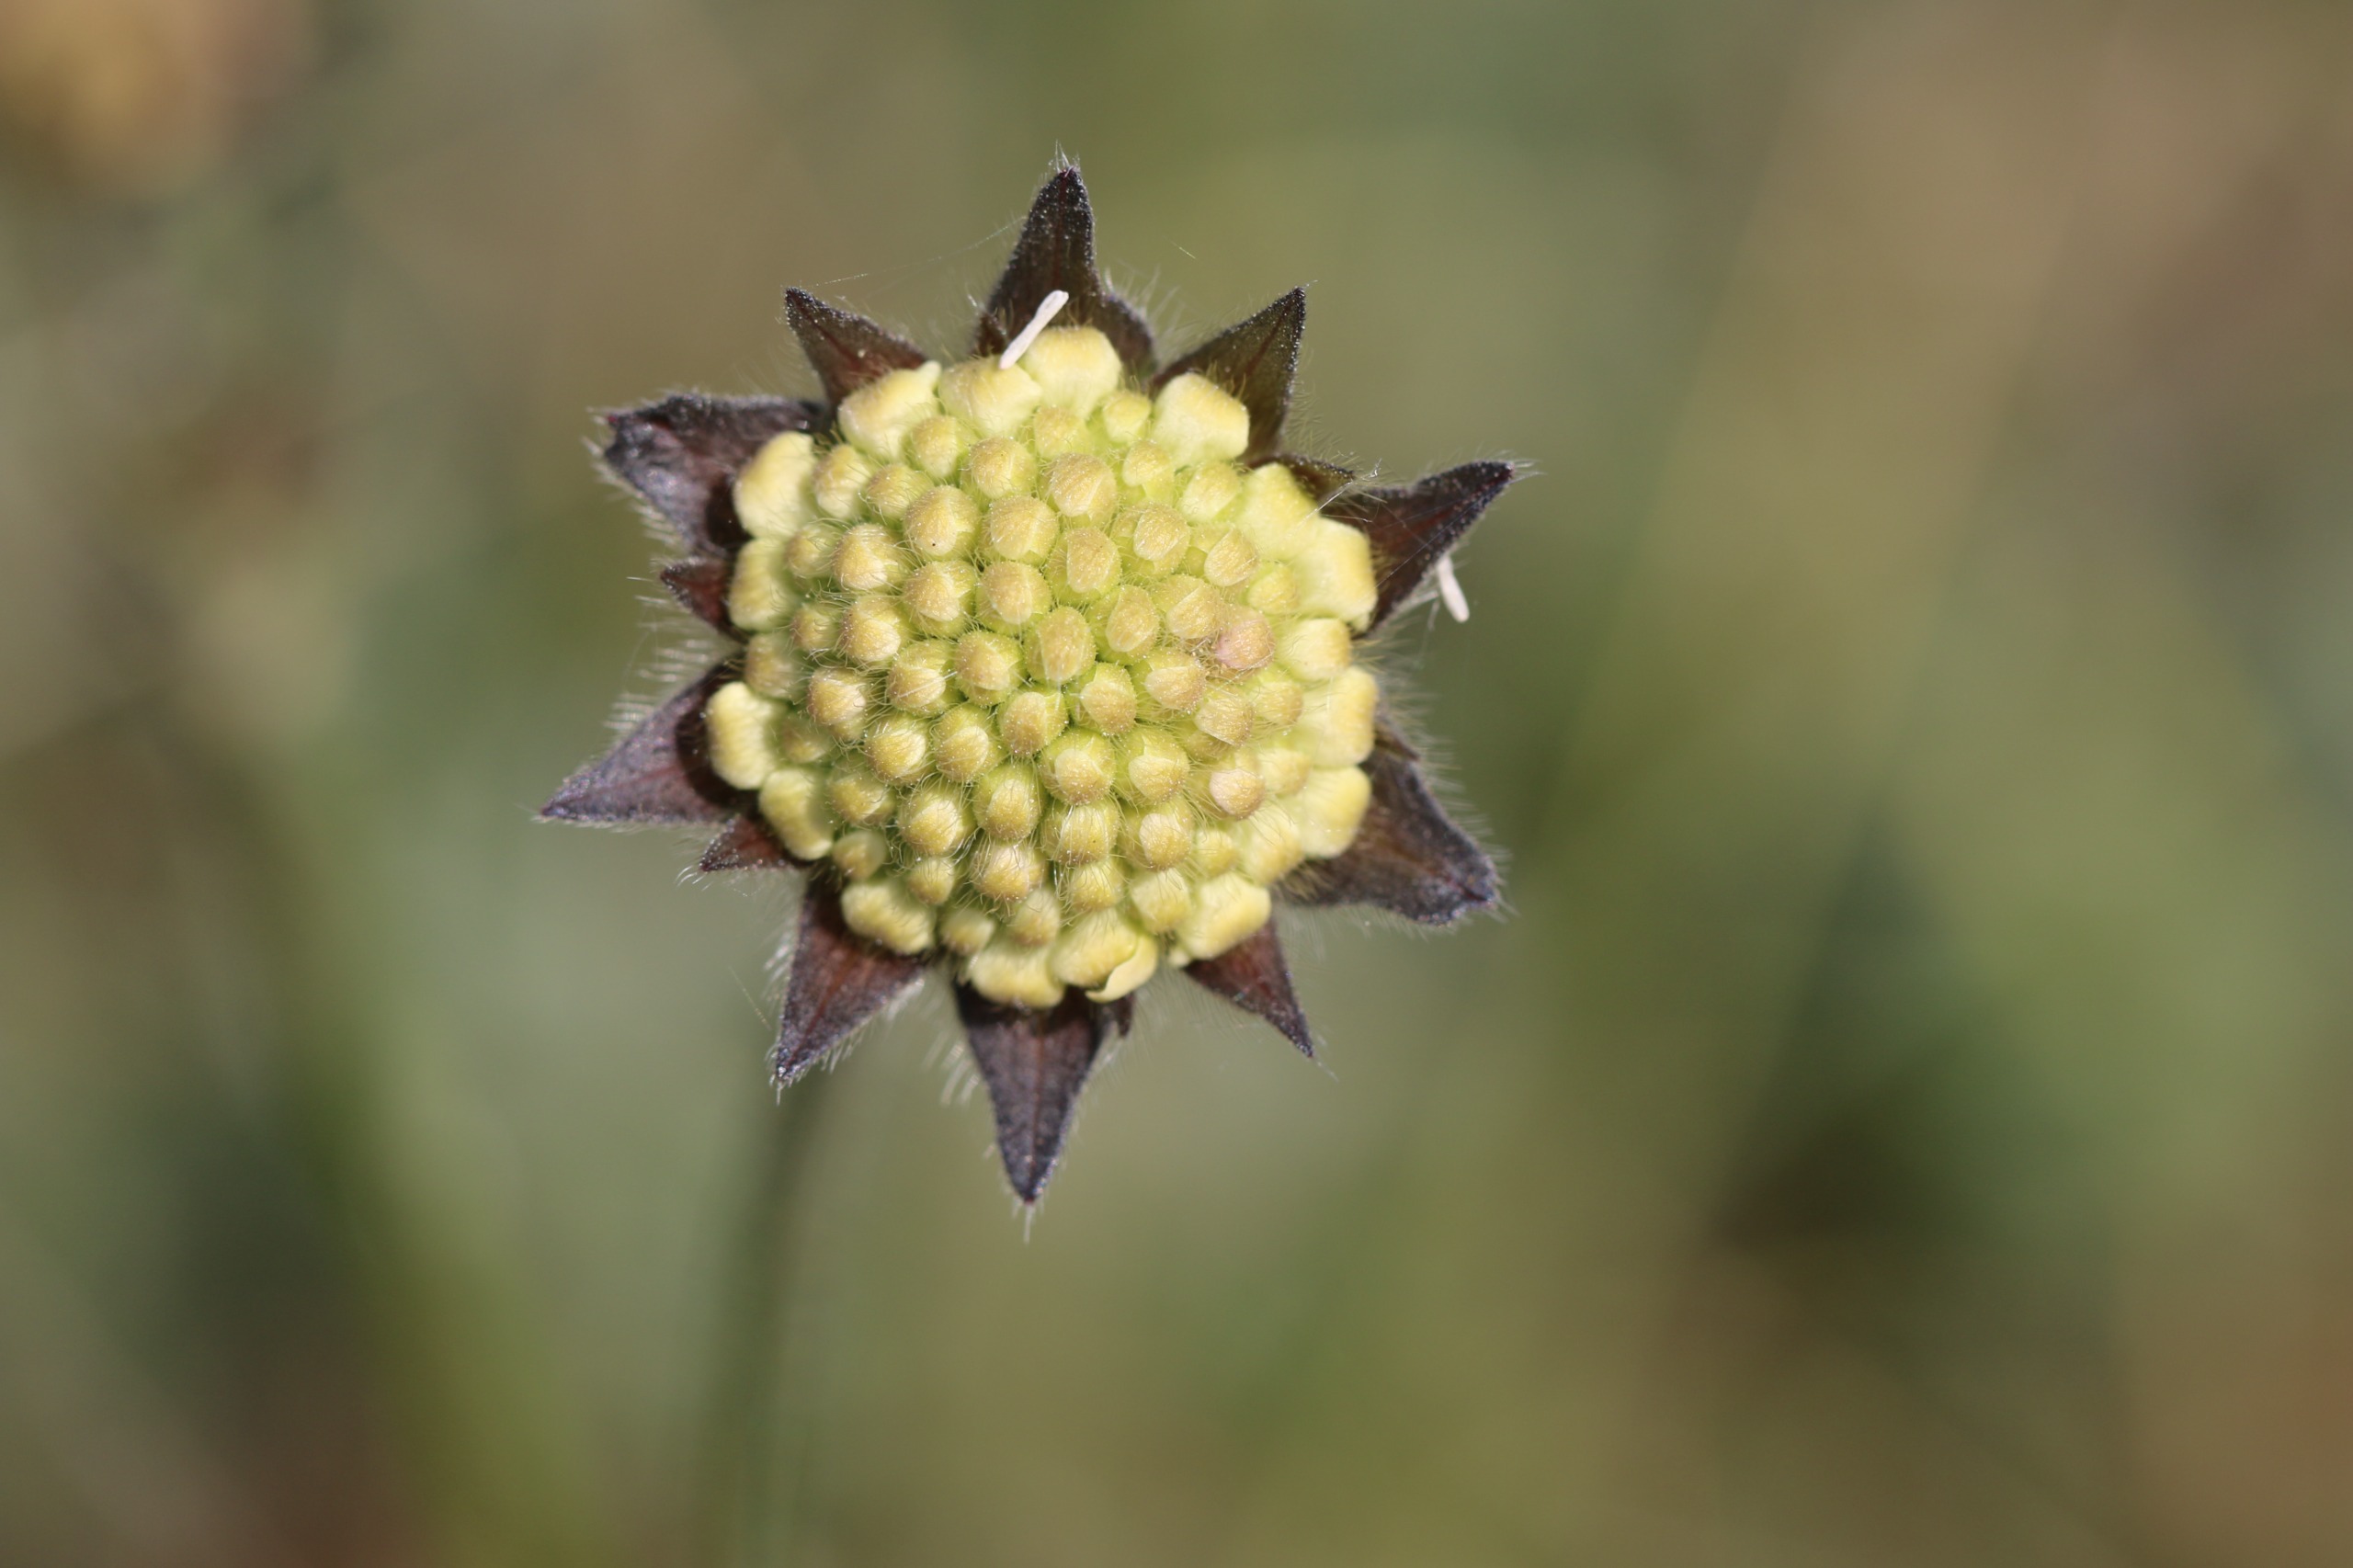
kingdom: Plantae
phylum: Tracheophyta
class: Magnoliopsida
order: Dipsacales
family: Caprifoliaceae
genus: Knautia
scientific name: Knautia arvensis
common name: Blåhat
